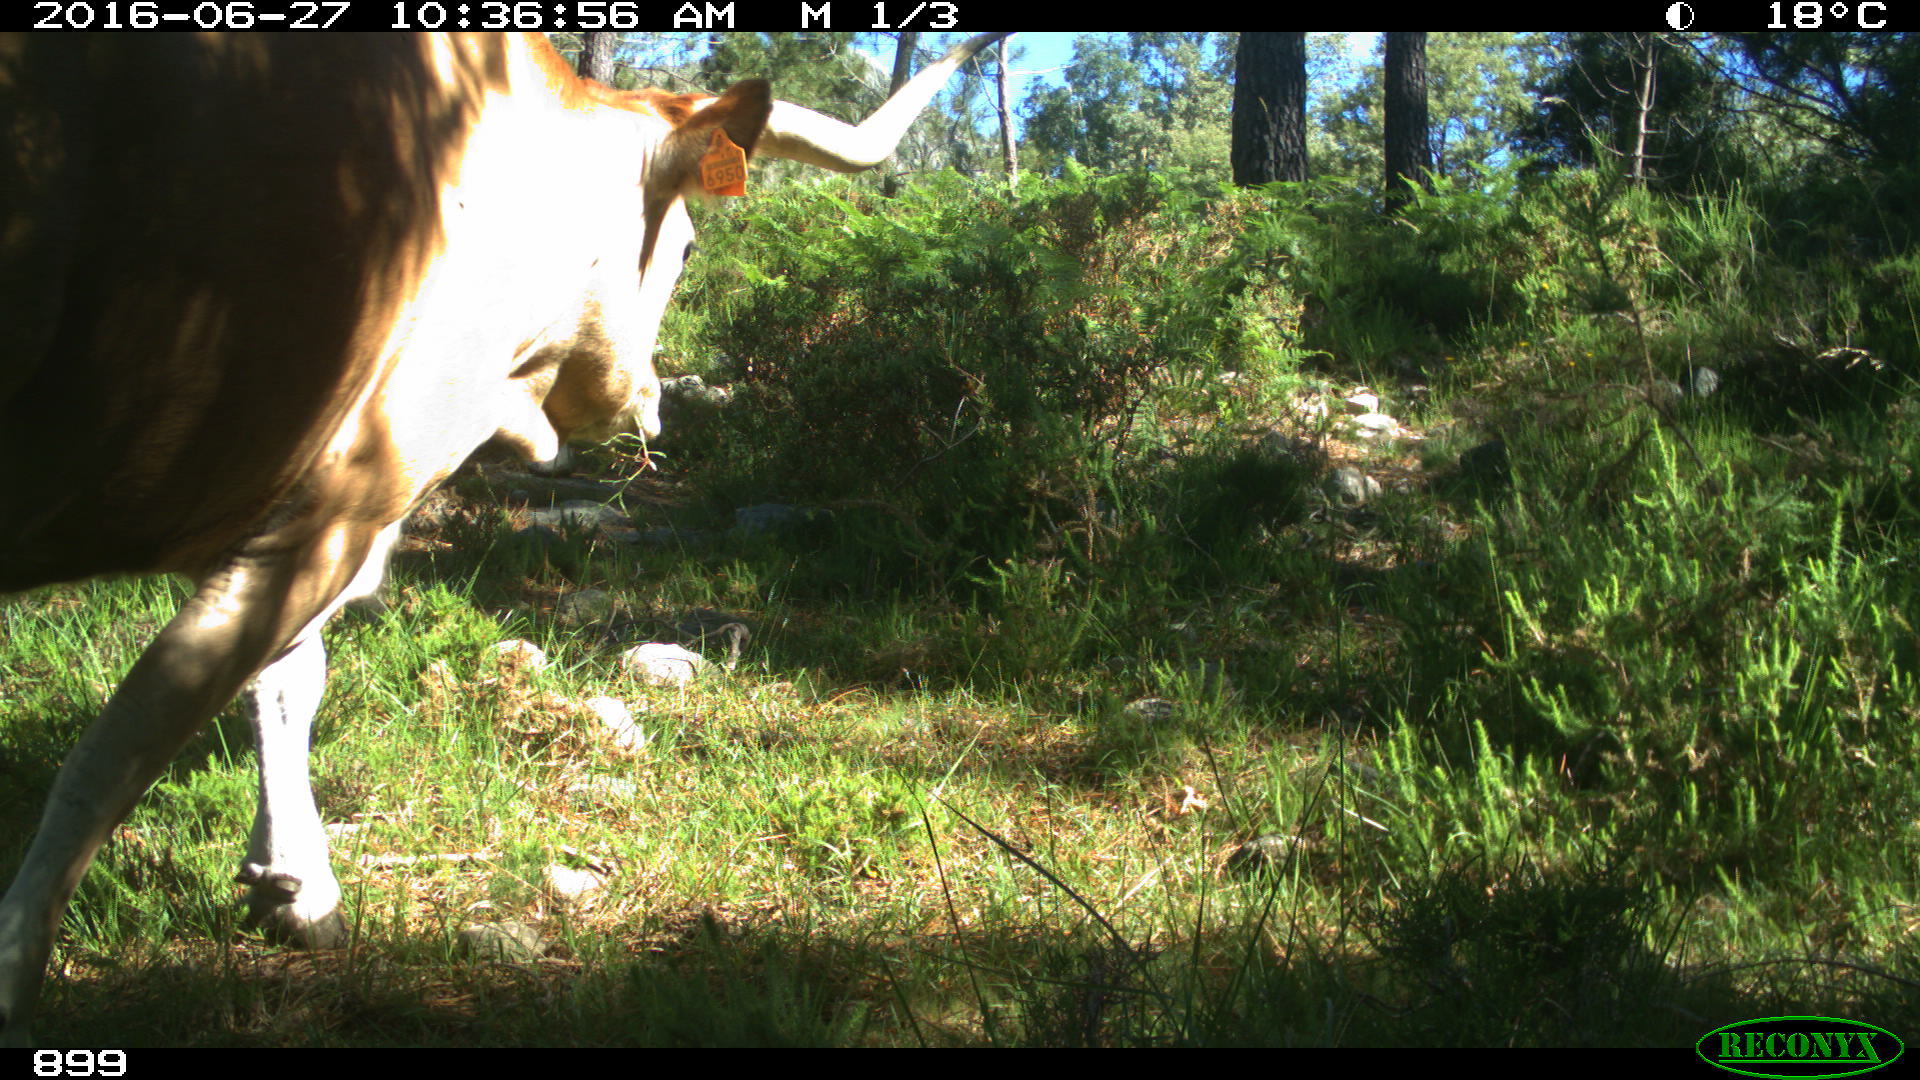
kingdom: Animalia
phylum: Chordata
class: Mammalia
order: Artiodactyla
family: Bovidae
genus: Bos
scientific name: Bos taurus
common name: Domesticated cattle
